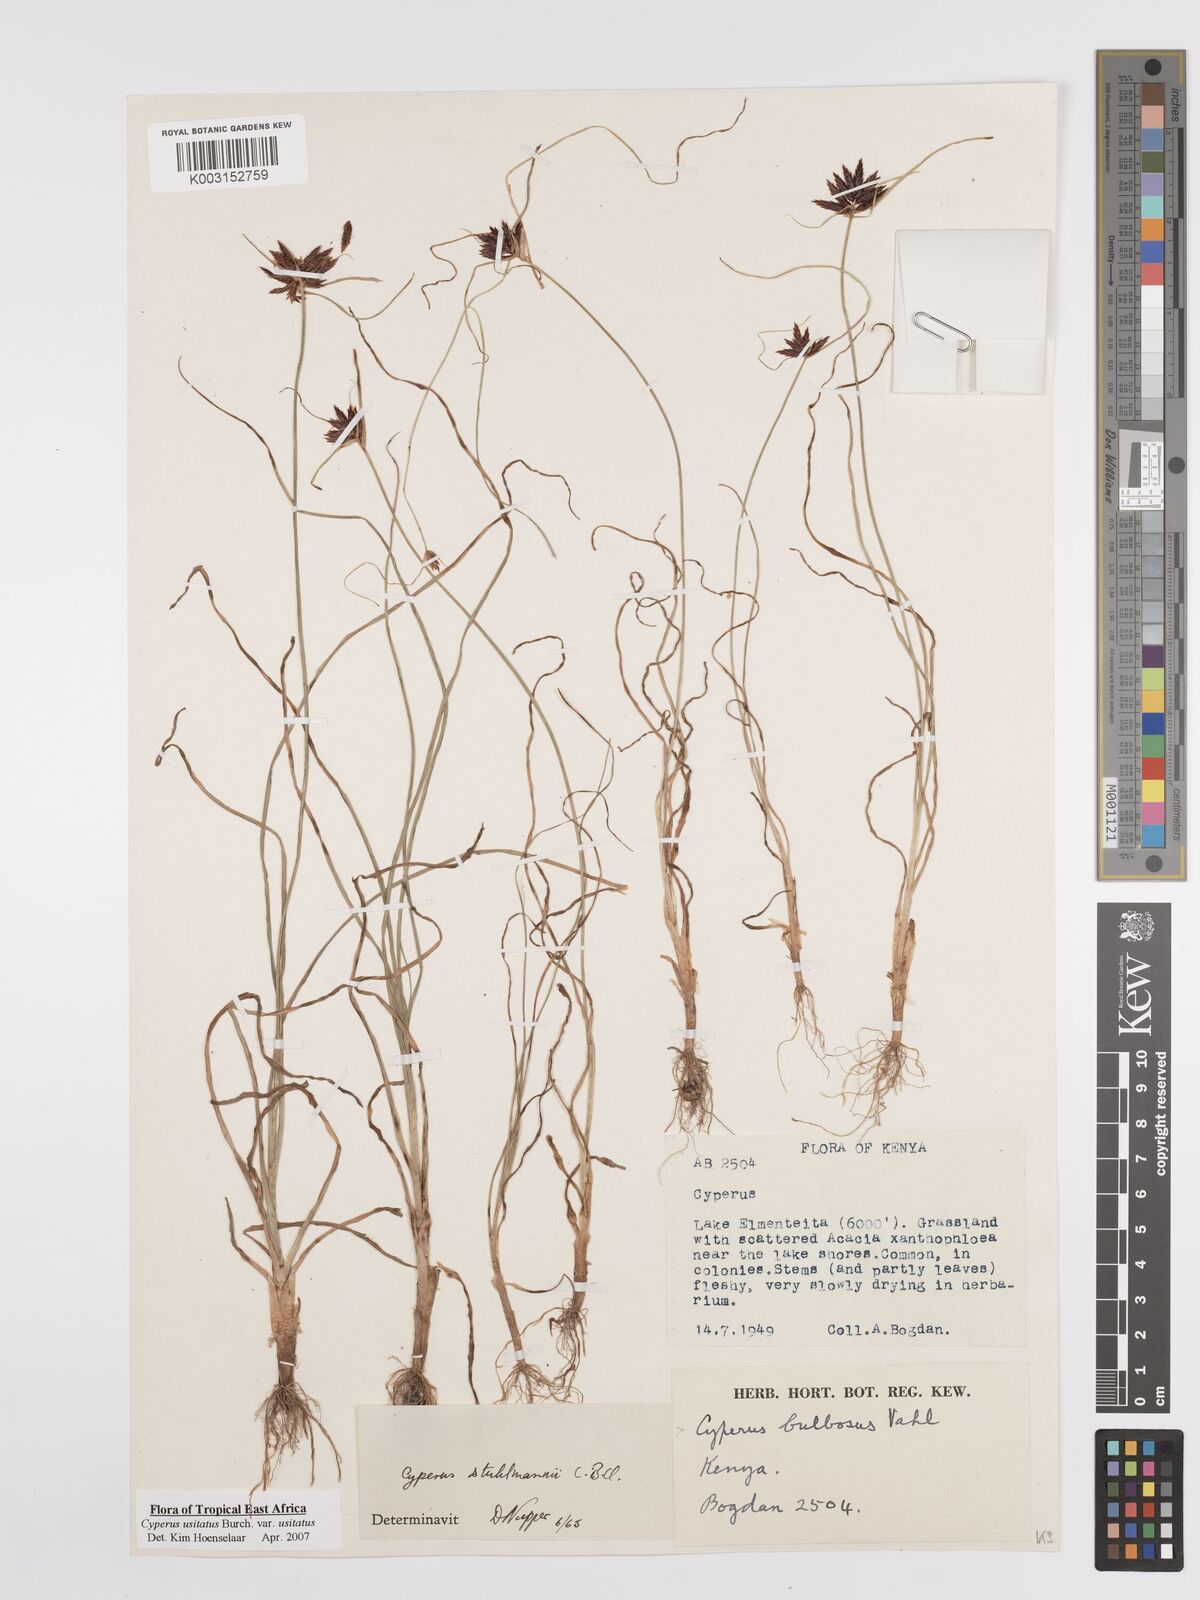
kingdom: Plantae
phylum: Tracheophyta
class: Liliopsida
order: Poales
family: Cyperaceae
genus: Cyperus
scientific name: Cyperus usitatus
